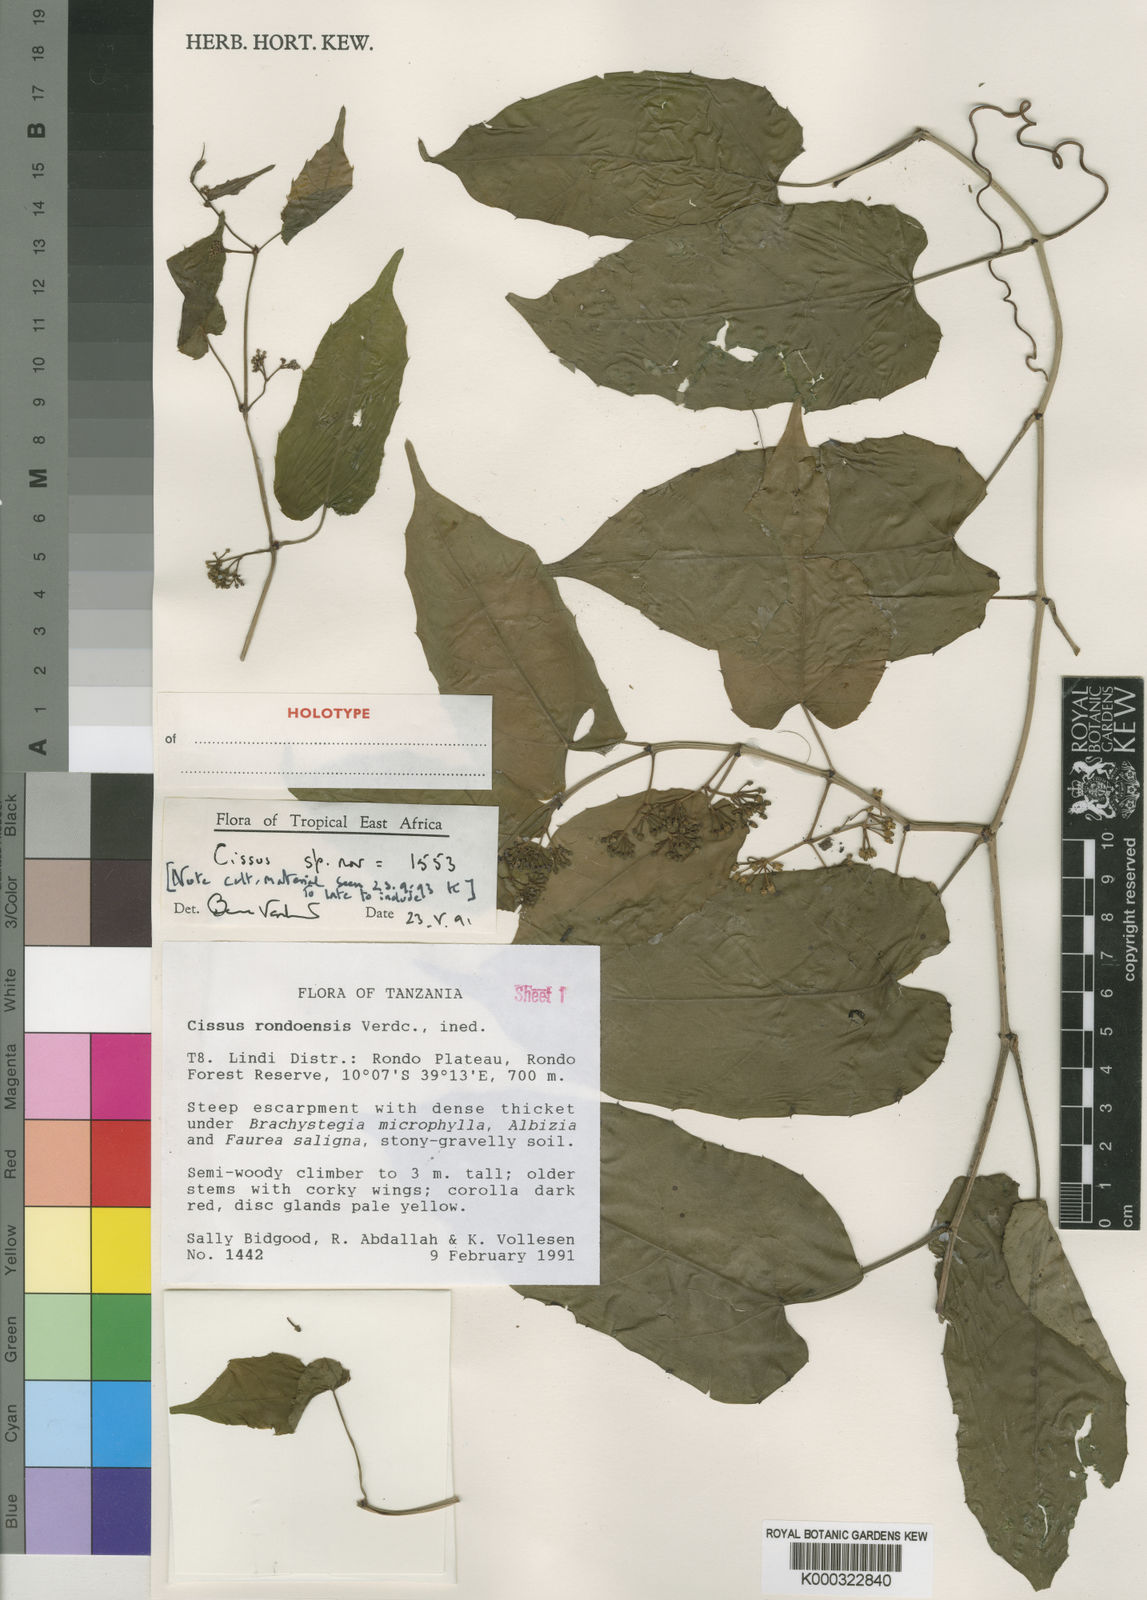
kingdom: Plantae
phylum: Tracheophyta
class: Magnoliopsida
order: Vitales
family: Vitaceae
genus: Cissus
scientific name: Cissus rondoensis
